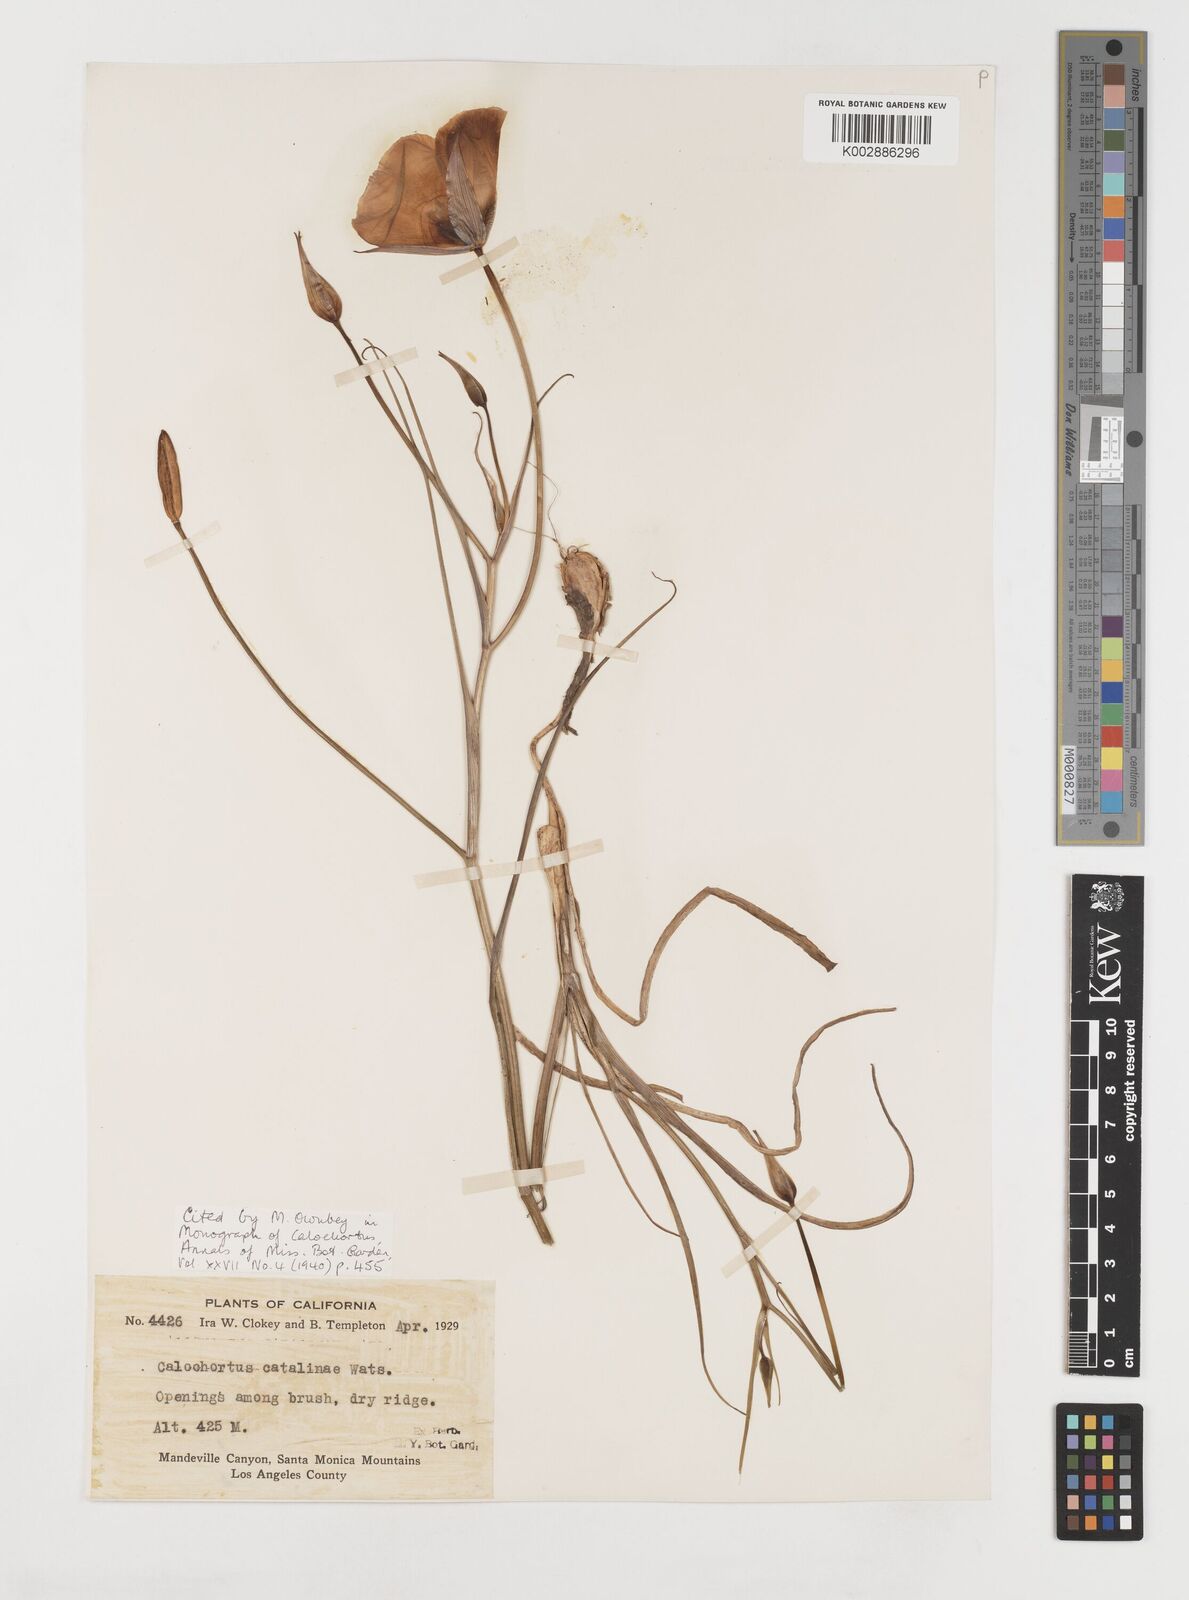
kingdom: Plantae
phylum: Tracheophyta
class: Liliopsida
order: Liliales
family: Liliaceae
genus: Calochortus
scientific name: Calochortus catalinae
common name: Catalina mariposa-lily
